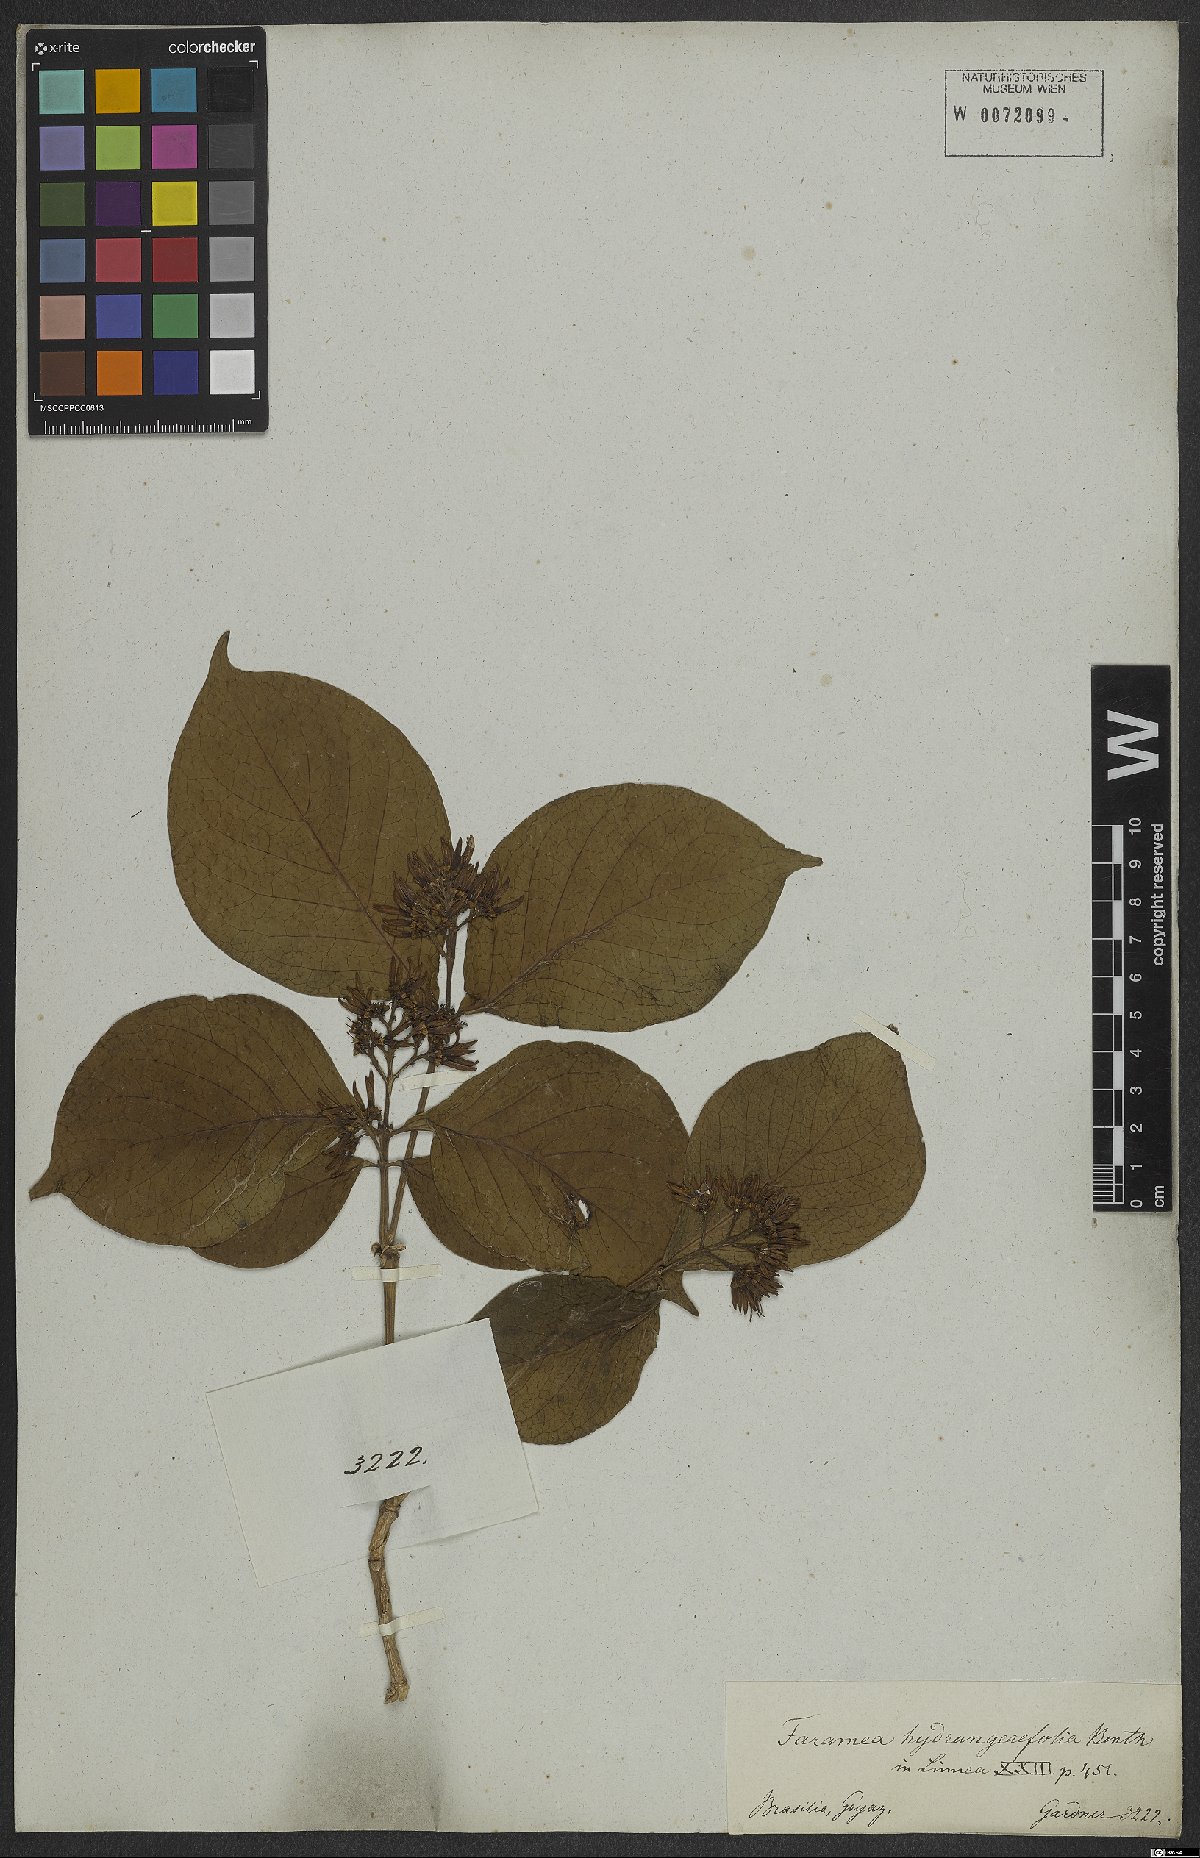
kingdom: Plantae
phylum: Tracheophyta
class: Magnoliopsida
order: Gentianales
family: Rubiaceae
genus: Coussarea
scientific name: Coussarea hydrangeifolia
